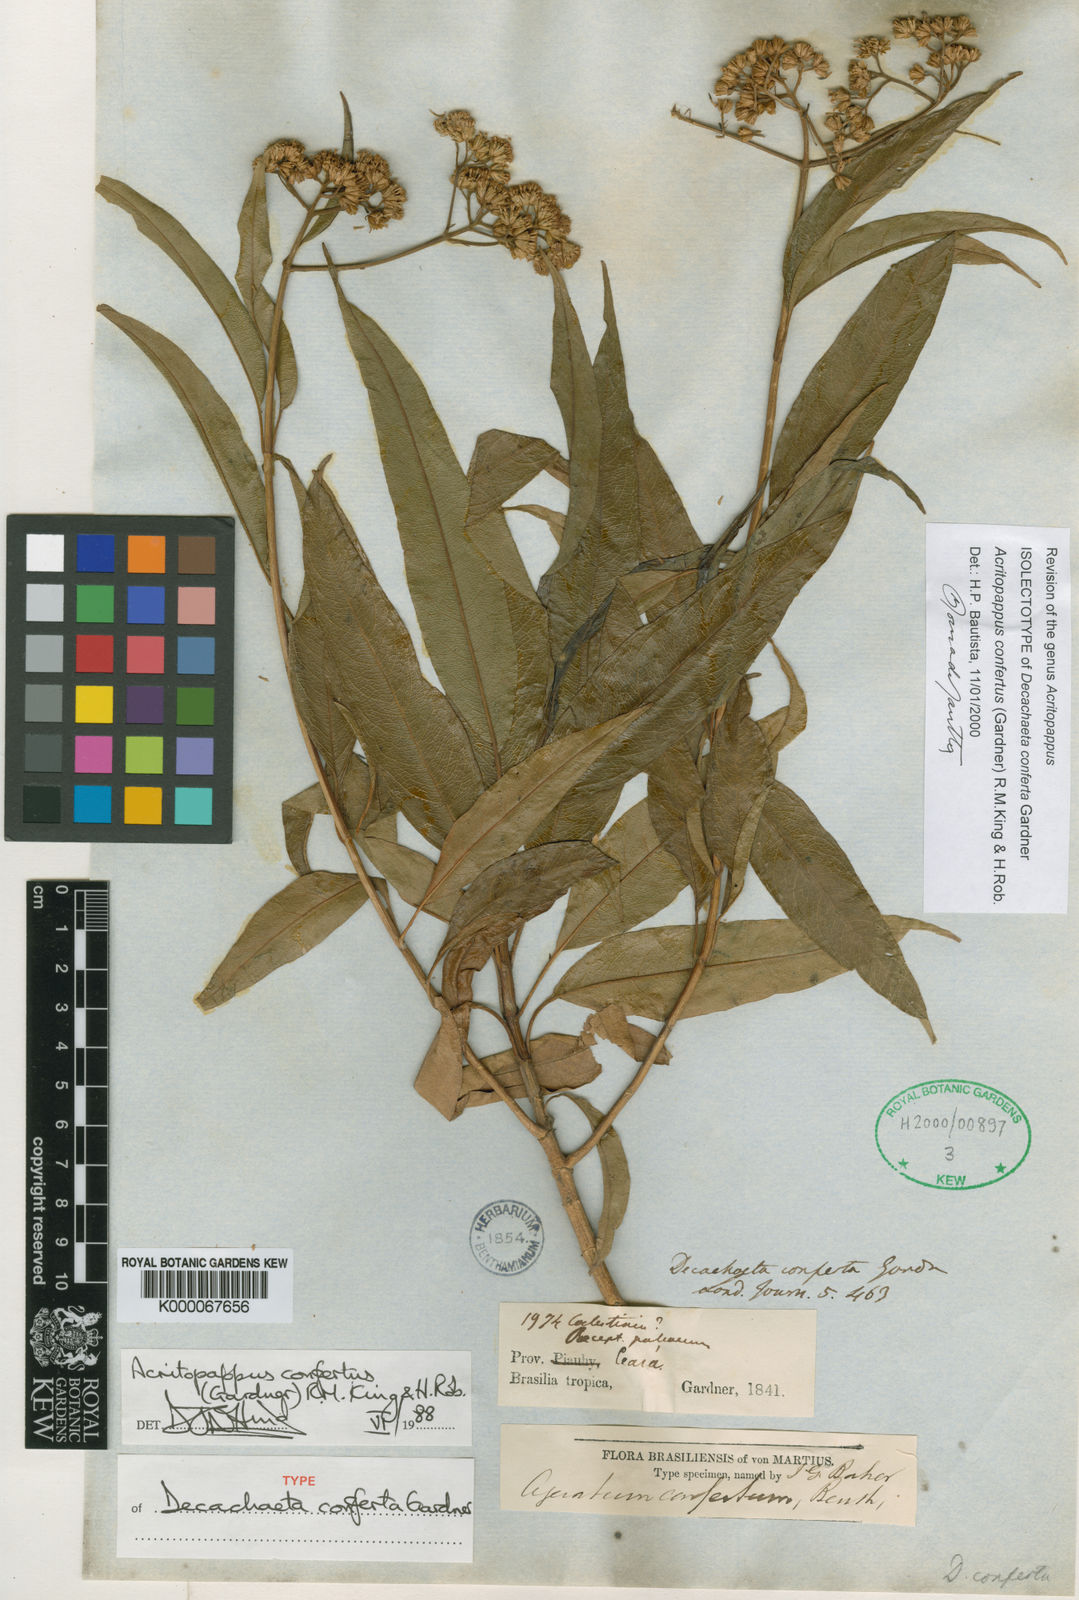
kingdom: Plantae
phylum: Tracheophyta
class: Magnoliopsida
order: Asterales
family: Asteraceae
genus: Acritopappus
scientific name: Acritopappus confertus
